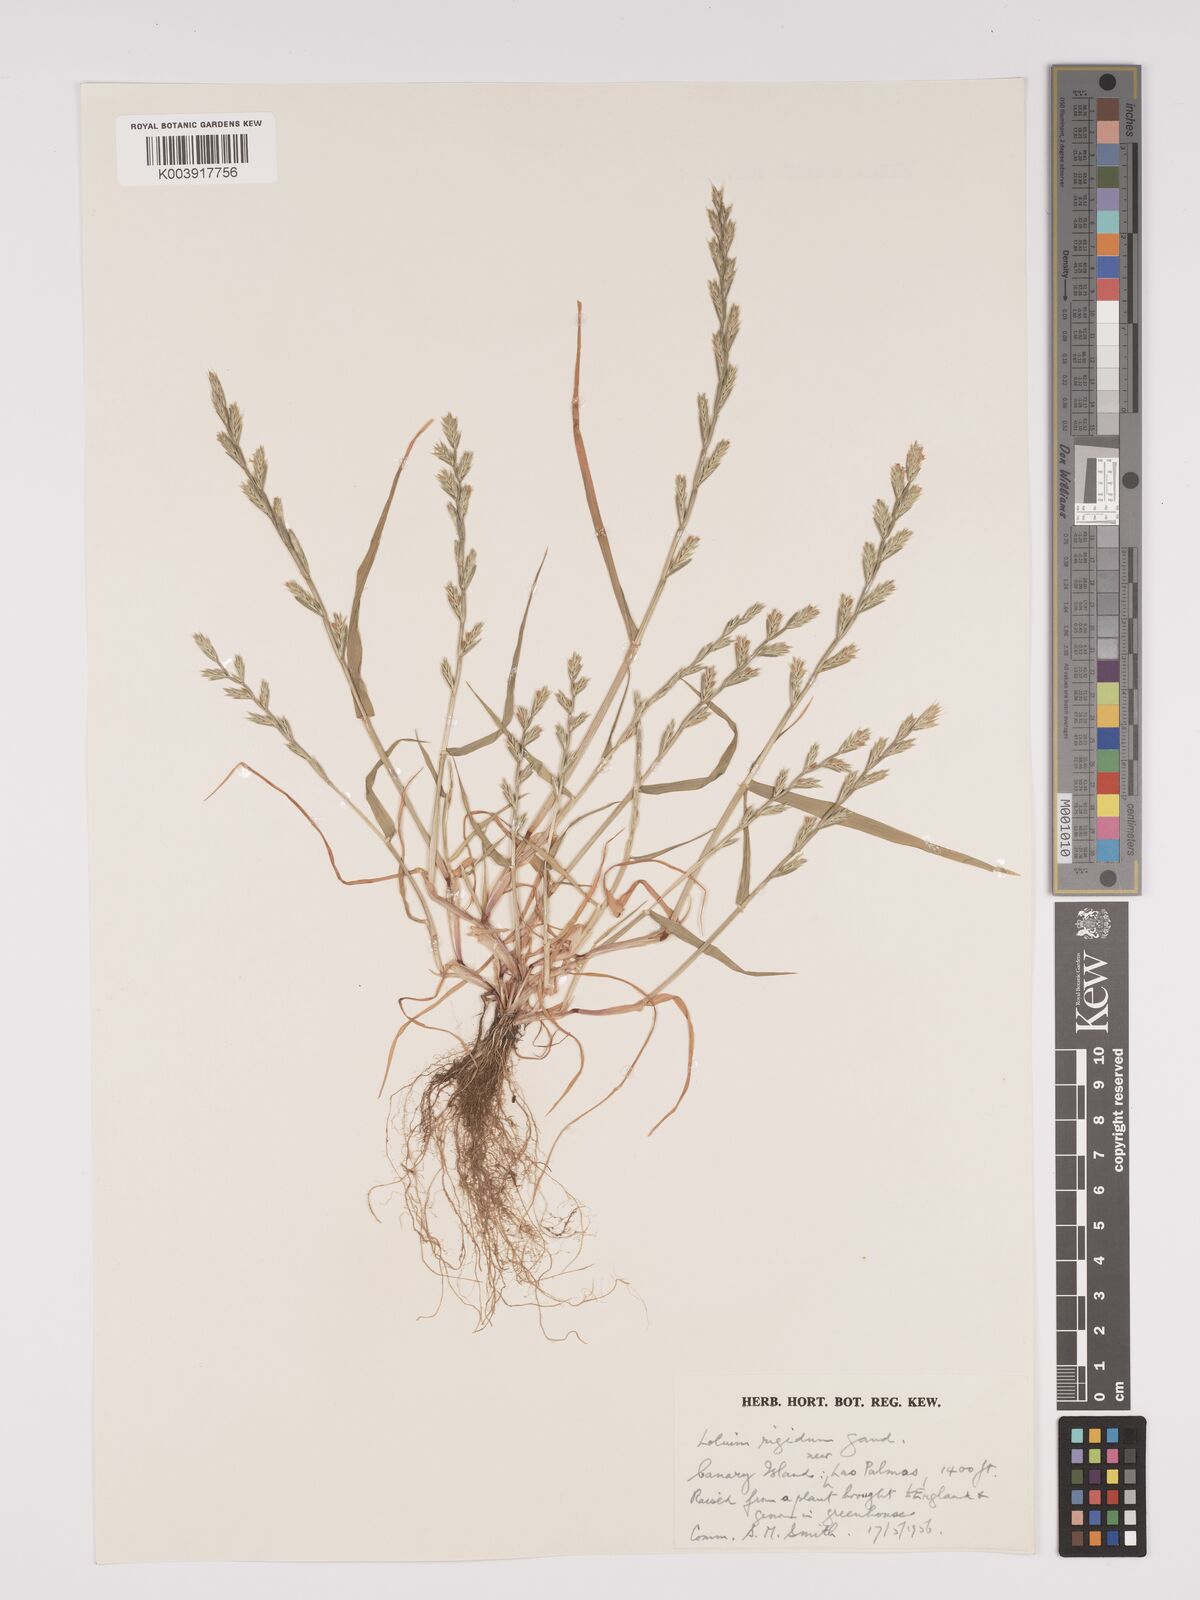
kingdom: Plantae
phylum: Tracheophyta
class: Liliopsida
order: Poales
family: Poaceae
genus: Lolium
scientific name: Lolium rigidum
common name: Wimmera ryegrass
